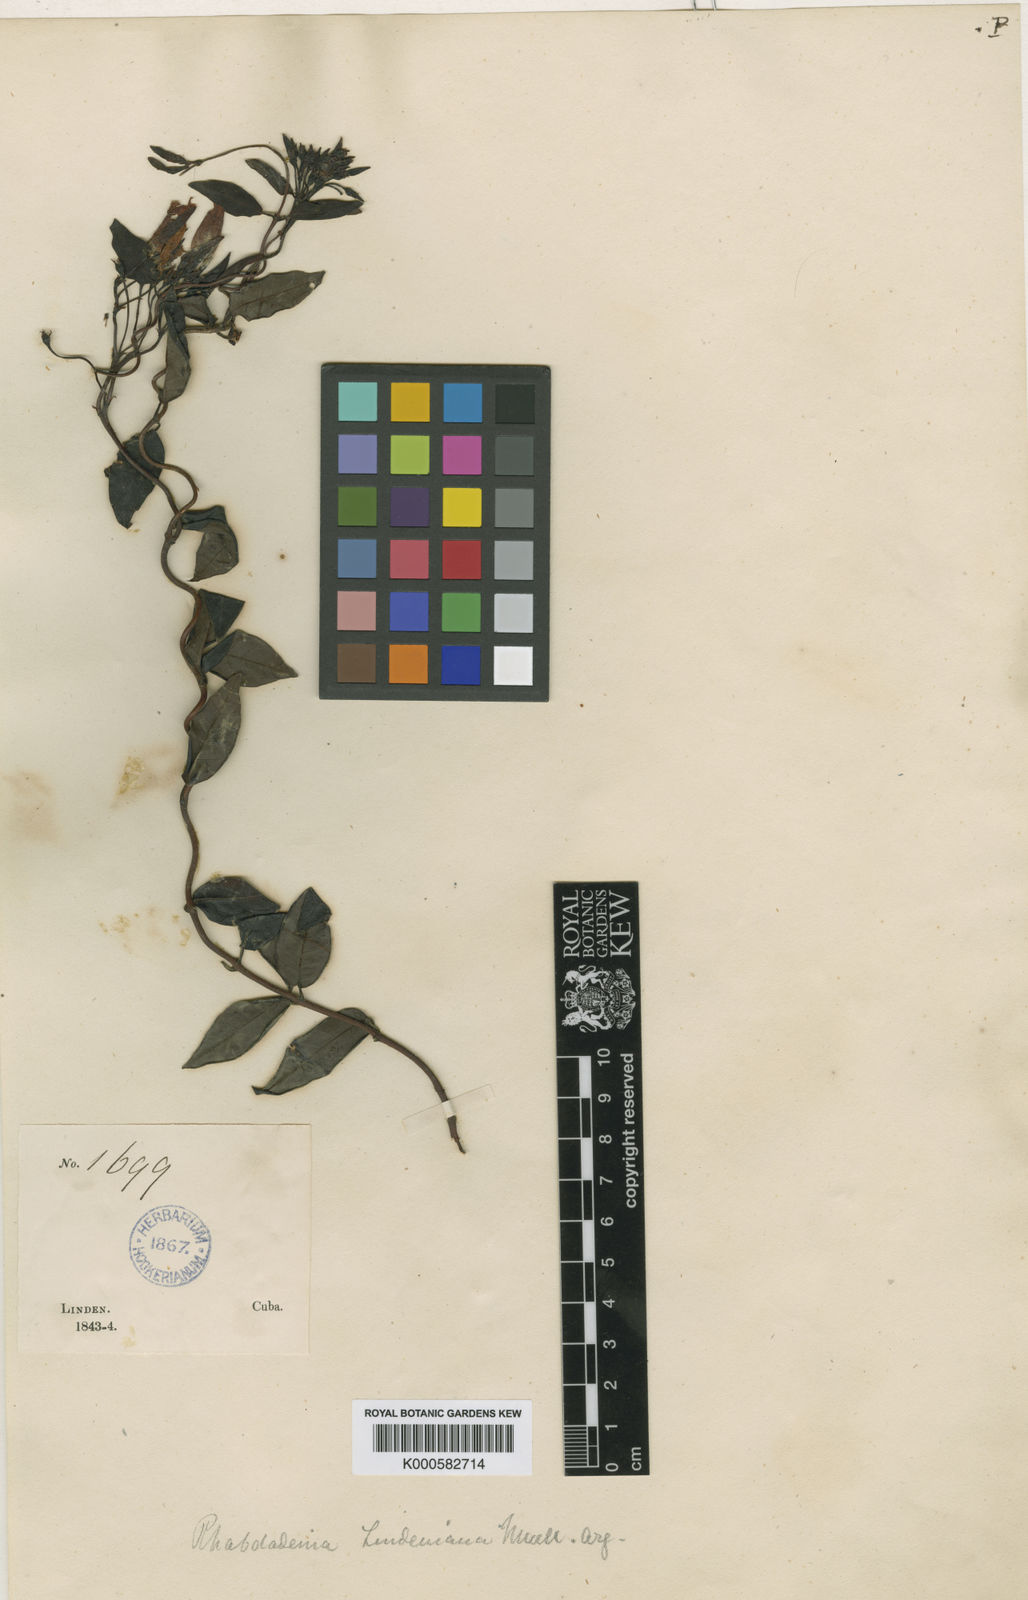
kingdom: Plantae
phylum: Tracheophyta
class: Magnoliopsida
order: Gentianales
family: Apocynaceae
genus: Angadenia
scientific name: Angadenia lindeniana
